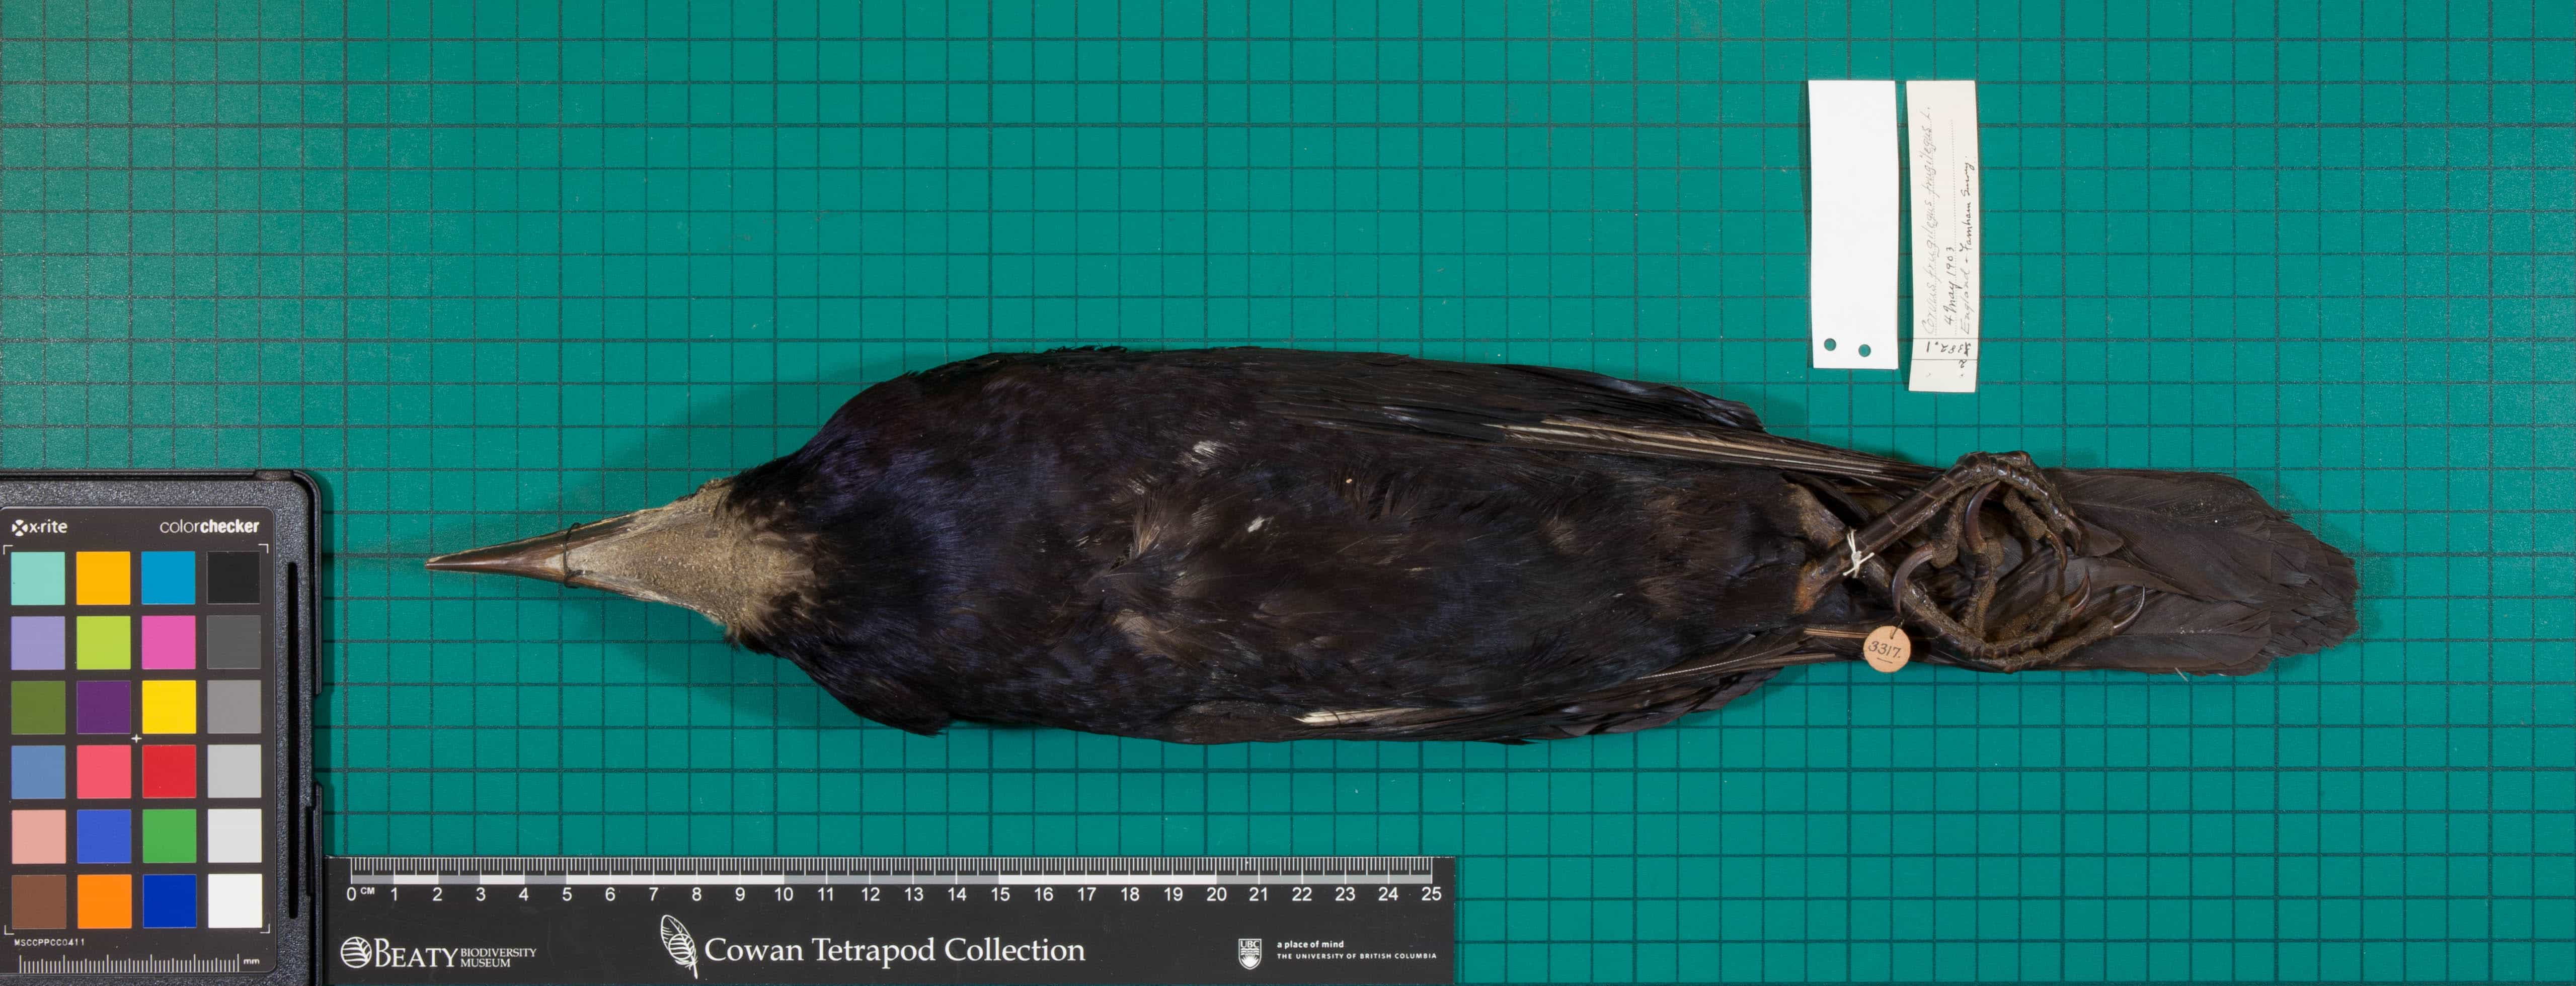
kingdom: Animalia
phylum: Chordata
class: Aves
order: Passeriformes
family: Corvidae
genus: Corvus
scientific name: Corvus frugilegus
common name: Rook
